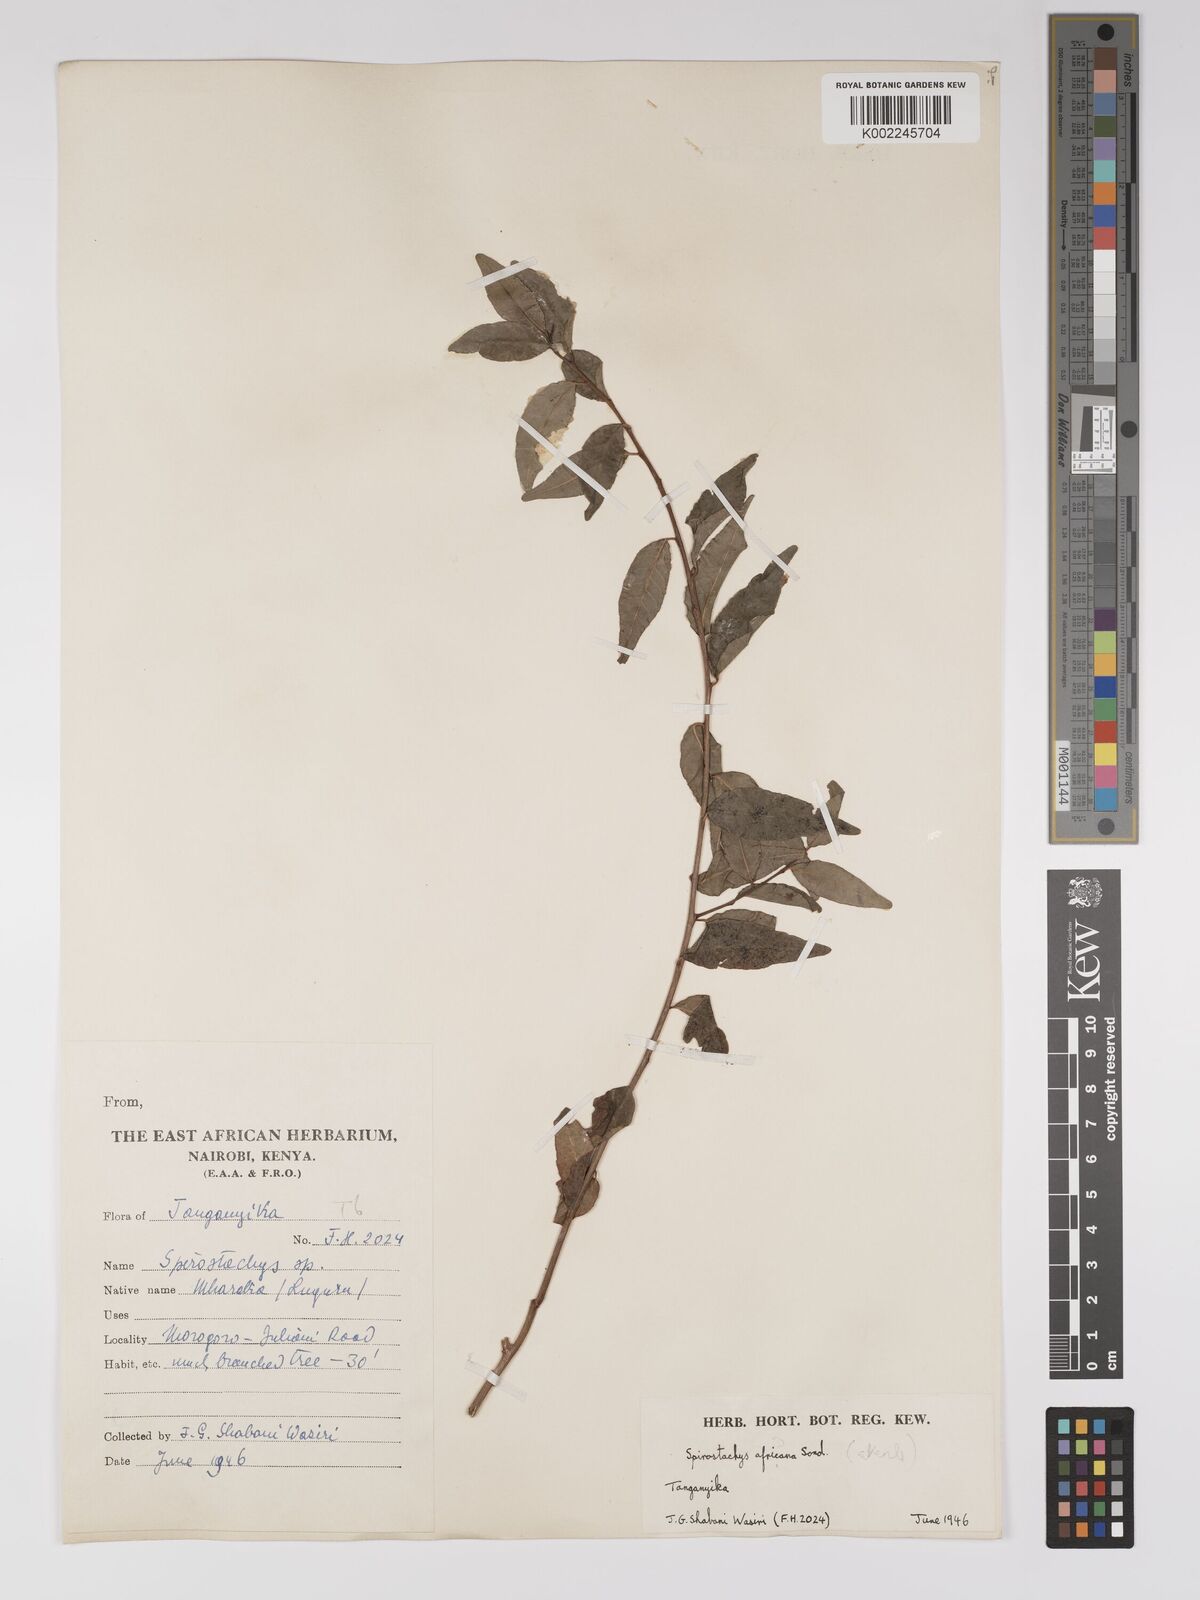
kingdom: Plantae
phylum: Tracheophyta
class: Magnoliopsida
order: Malpighiales
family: Euphorbiaceae
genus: Spirostachys
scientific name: Spirostachys africana
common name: Tamboti
